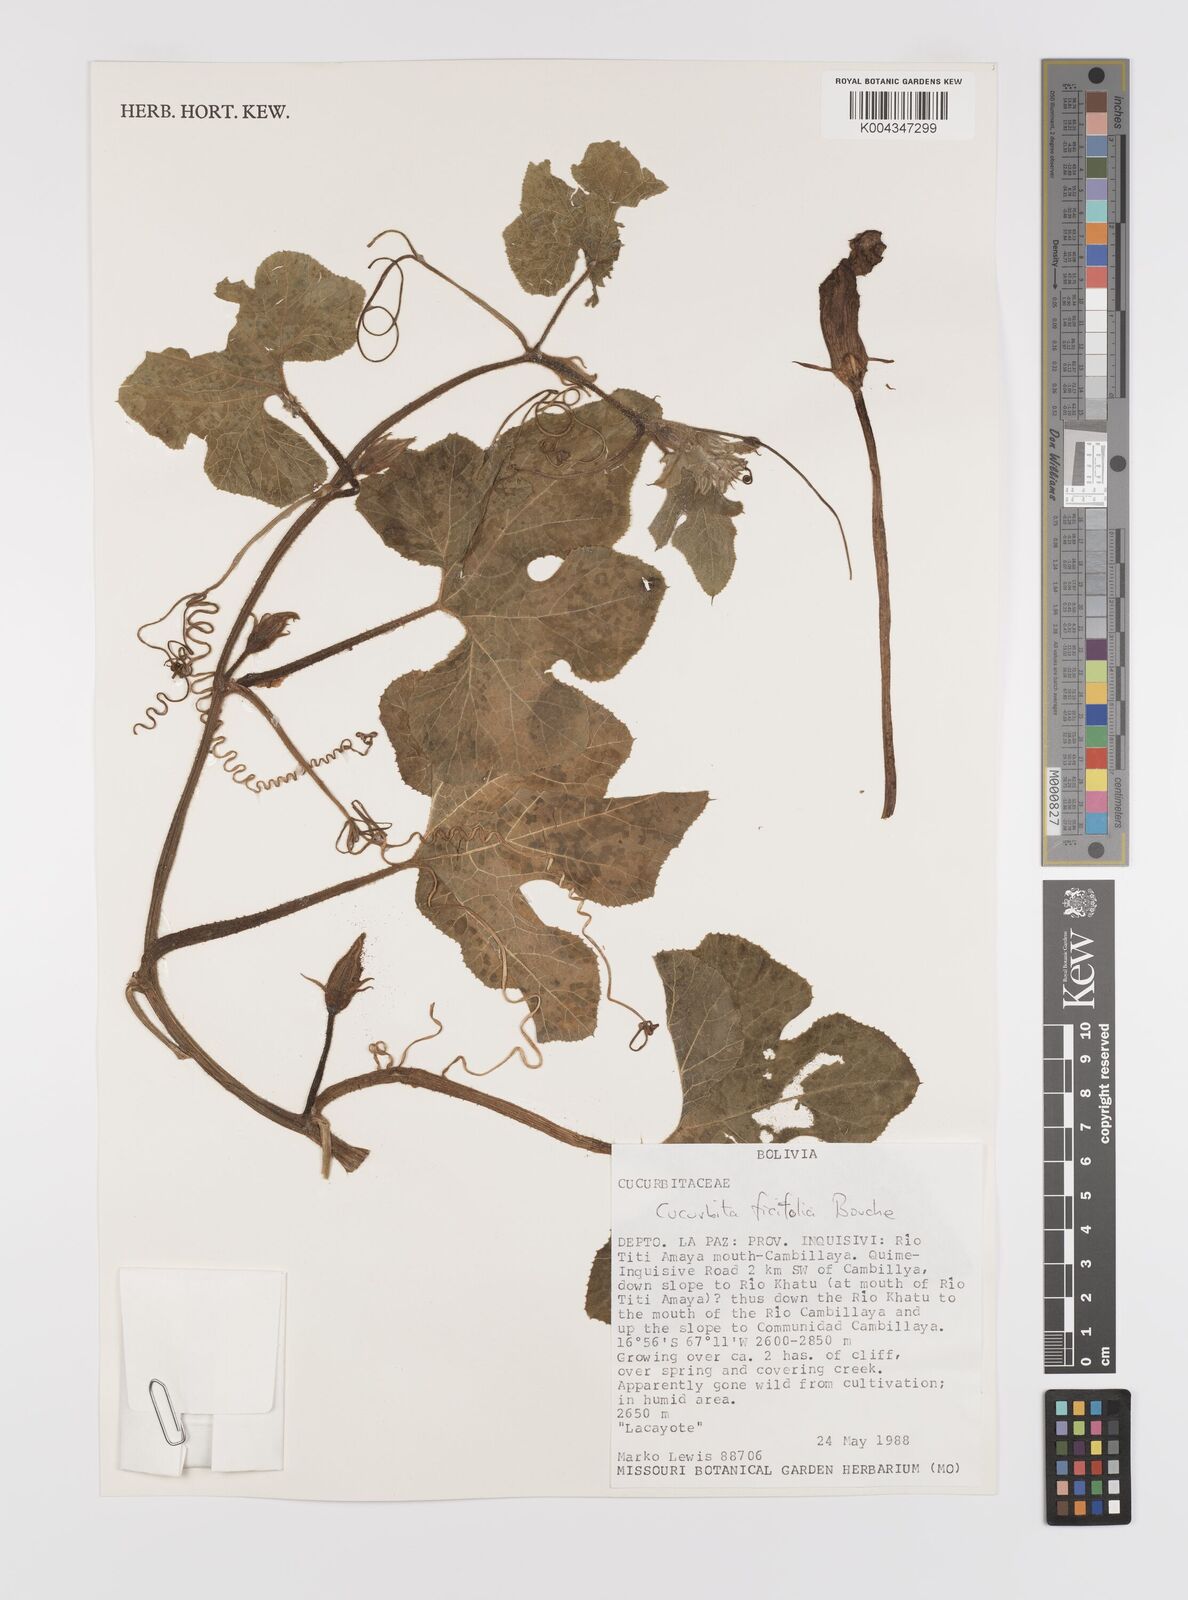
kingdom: Plantae
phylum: Tracheophyta
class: Magnoliopsida
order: Cucurbitales
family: Cucurbitaceae
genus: Cucurbita
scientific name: Cucurbita ficifolia
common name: Figleaf gourd
